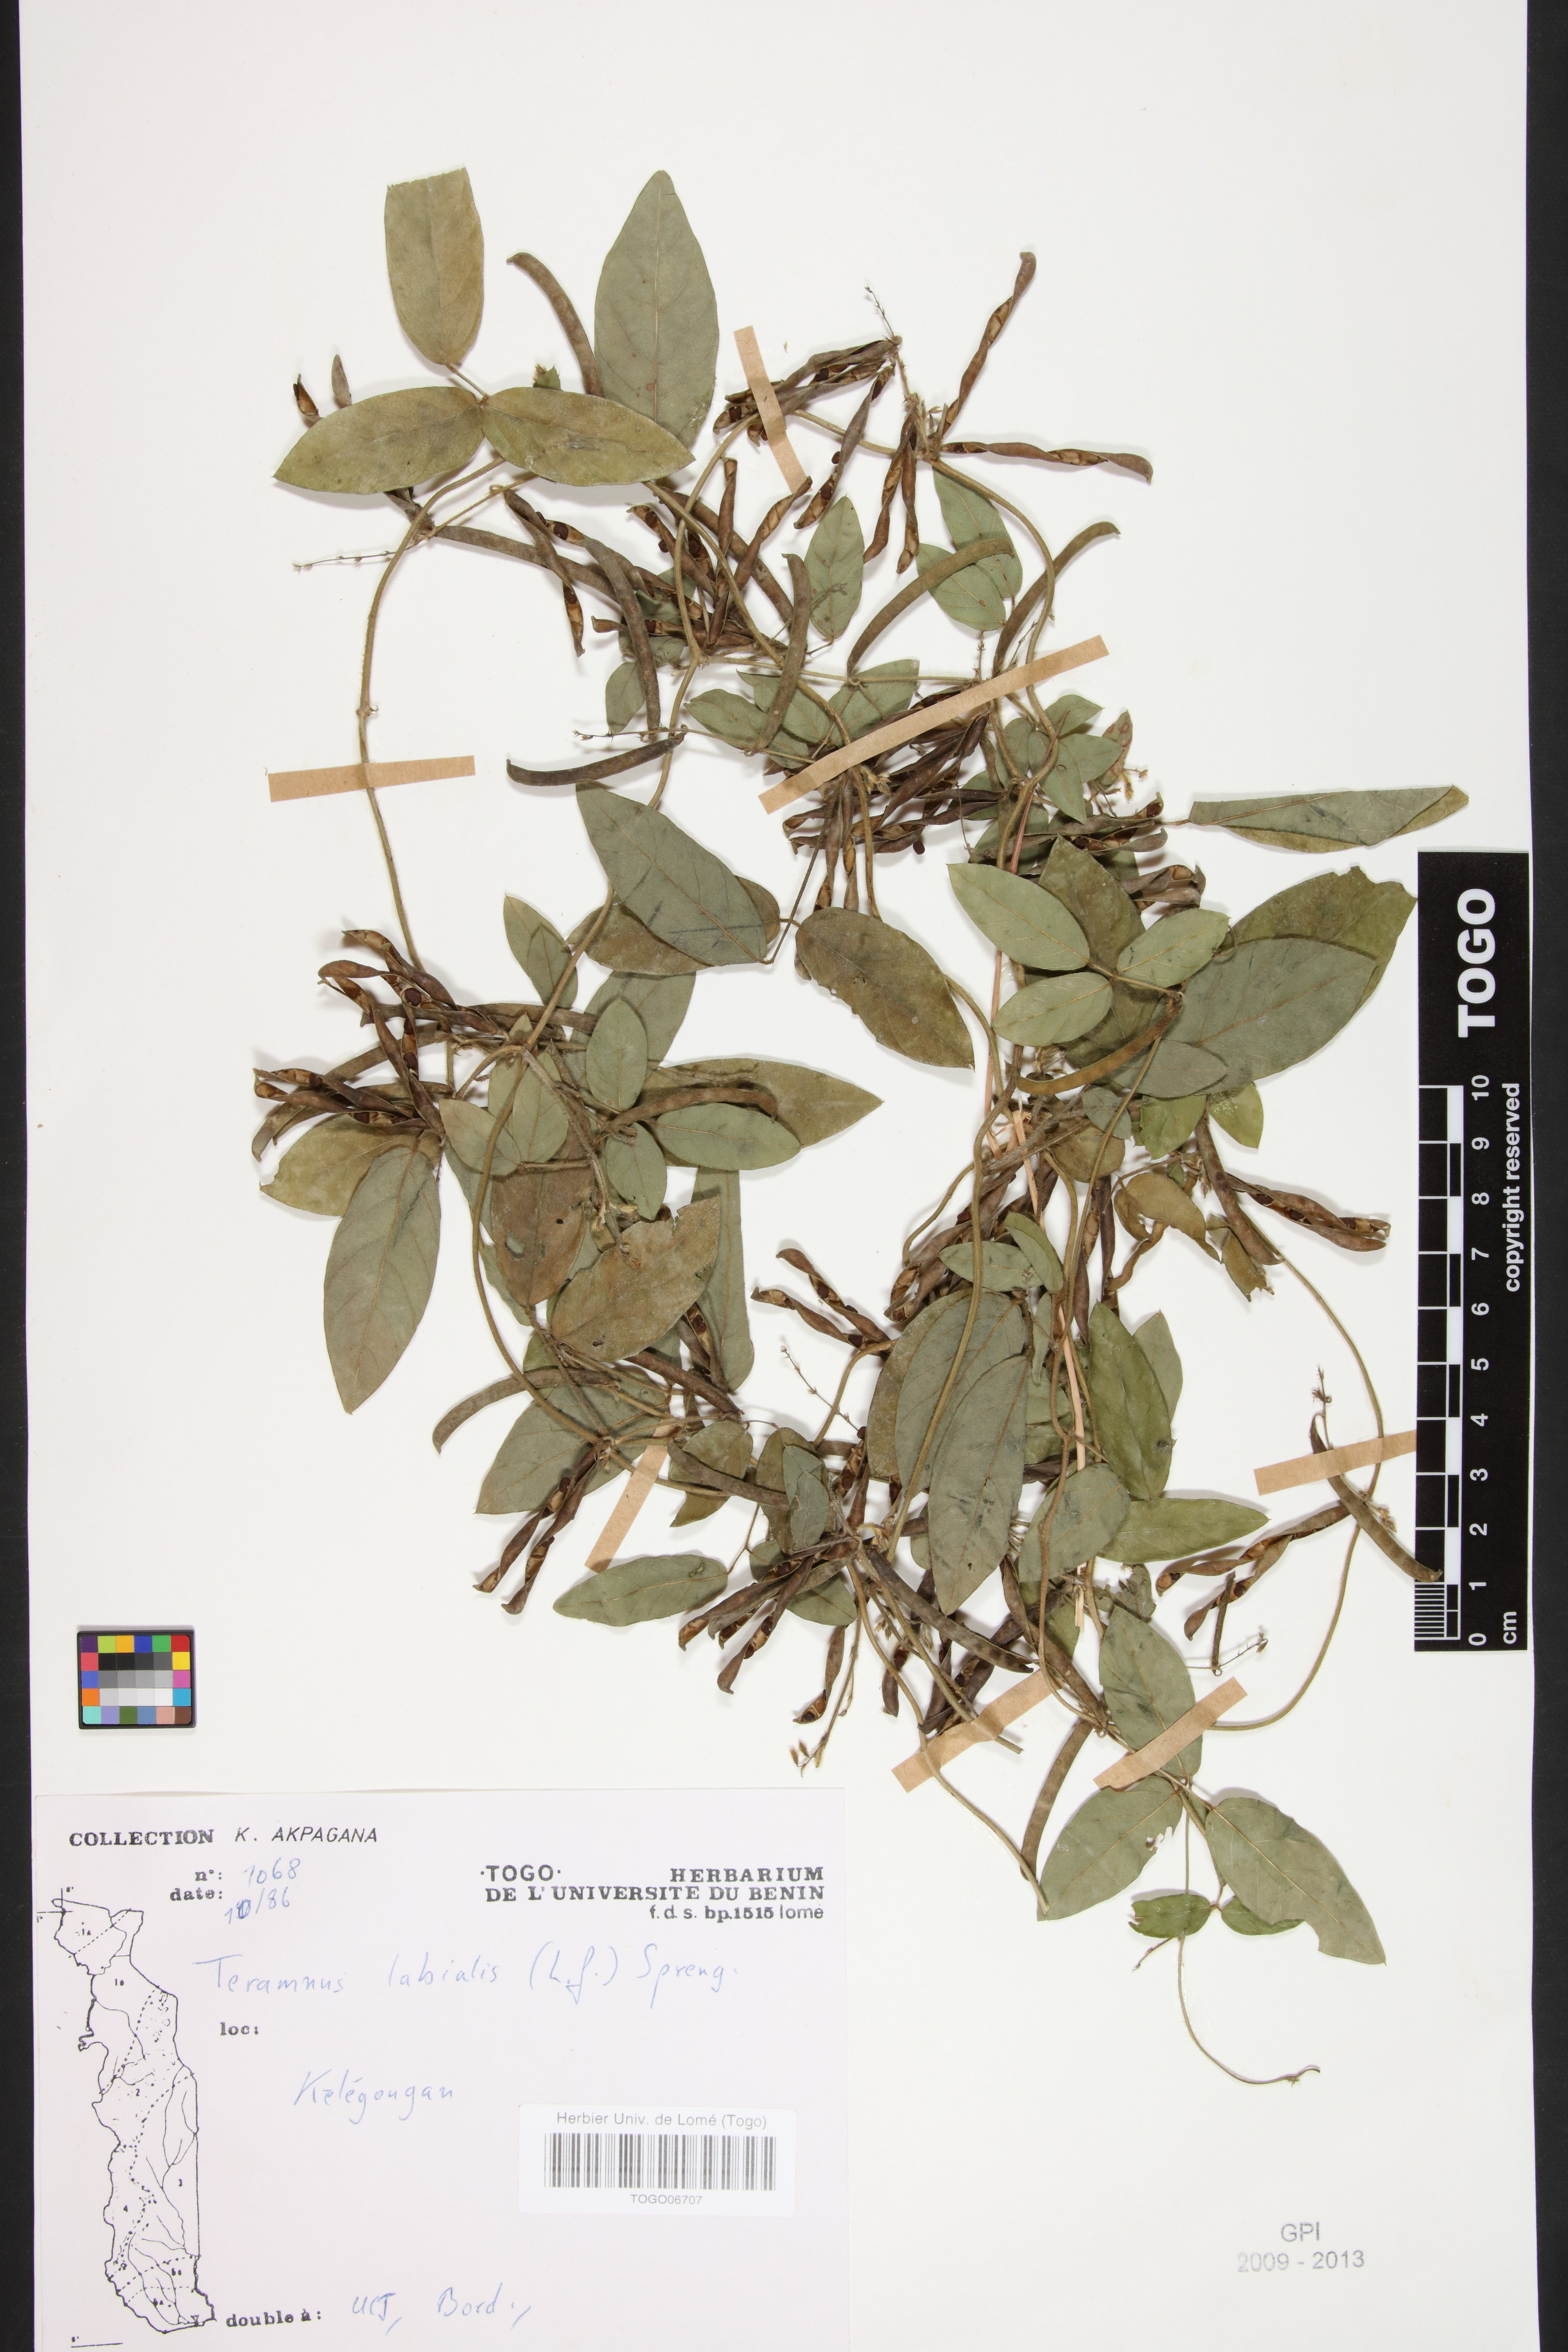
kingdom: Plantae
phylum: Tracheophyta
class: Magnoliopsida
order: Fabales
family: Fabaceae
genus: Teramnus
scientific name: Teramnus labialis
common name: Blue wiss
